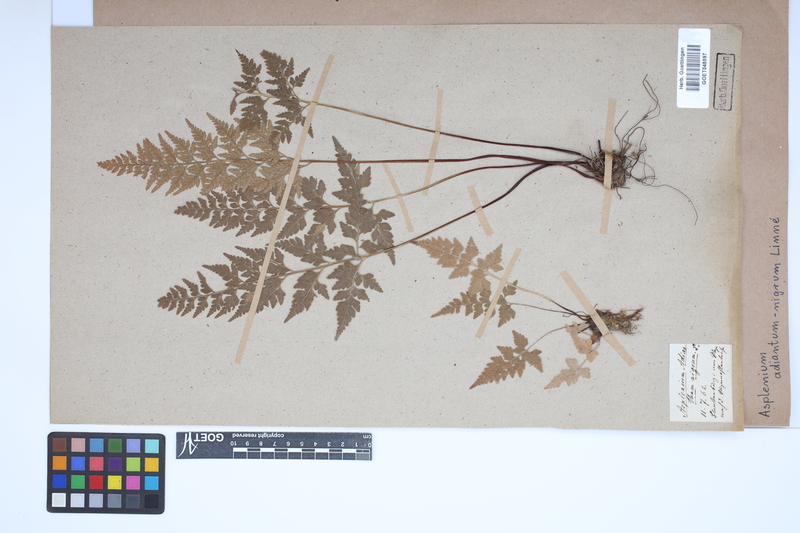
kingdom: Plantae
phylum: Tracheophyta
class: Polypodiopsida
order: Polypodiales
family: Aspleniaceae
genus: Asplenium
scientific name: Asplenium adiantum-nigrum
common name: Black spleenwort
